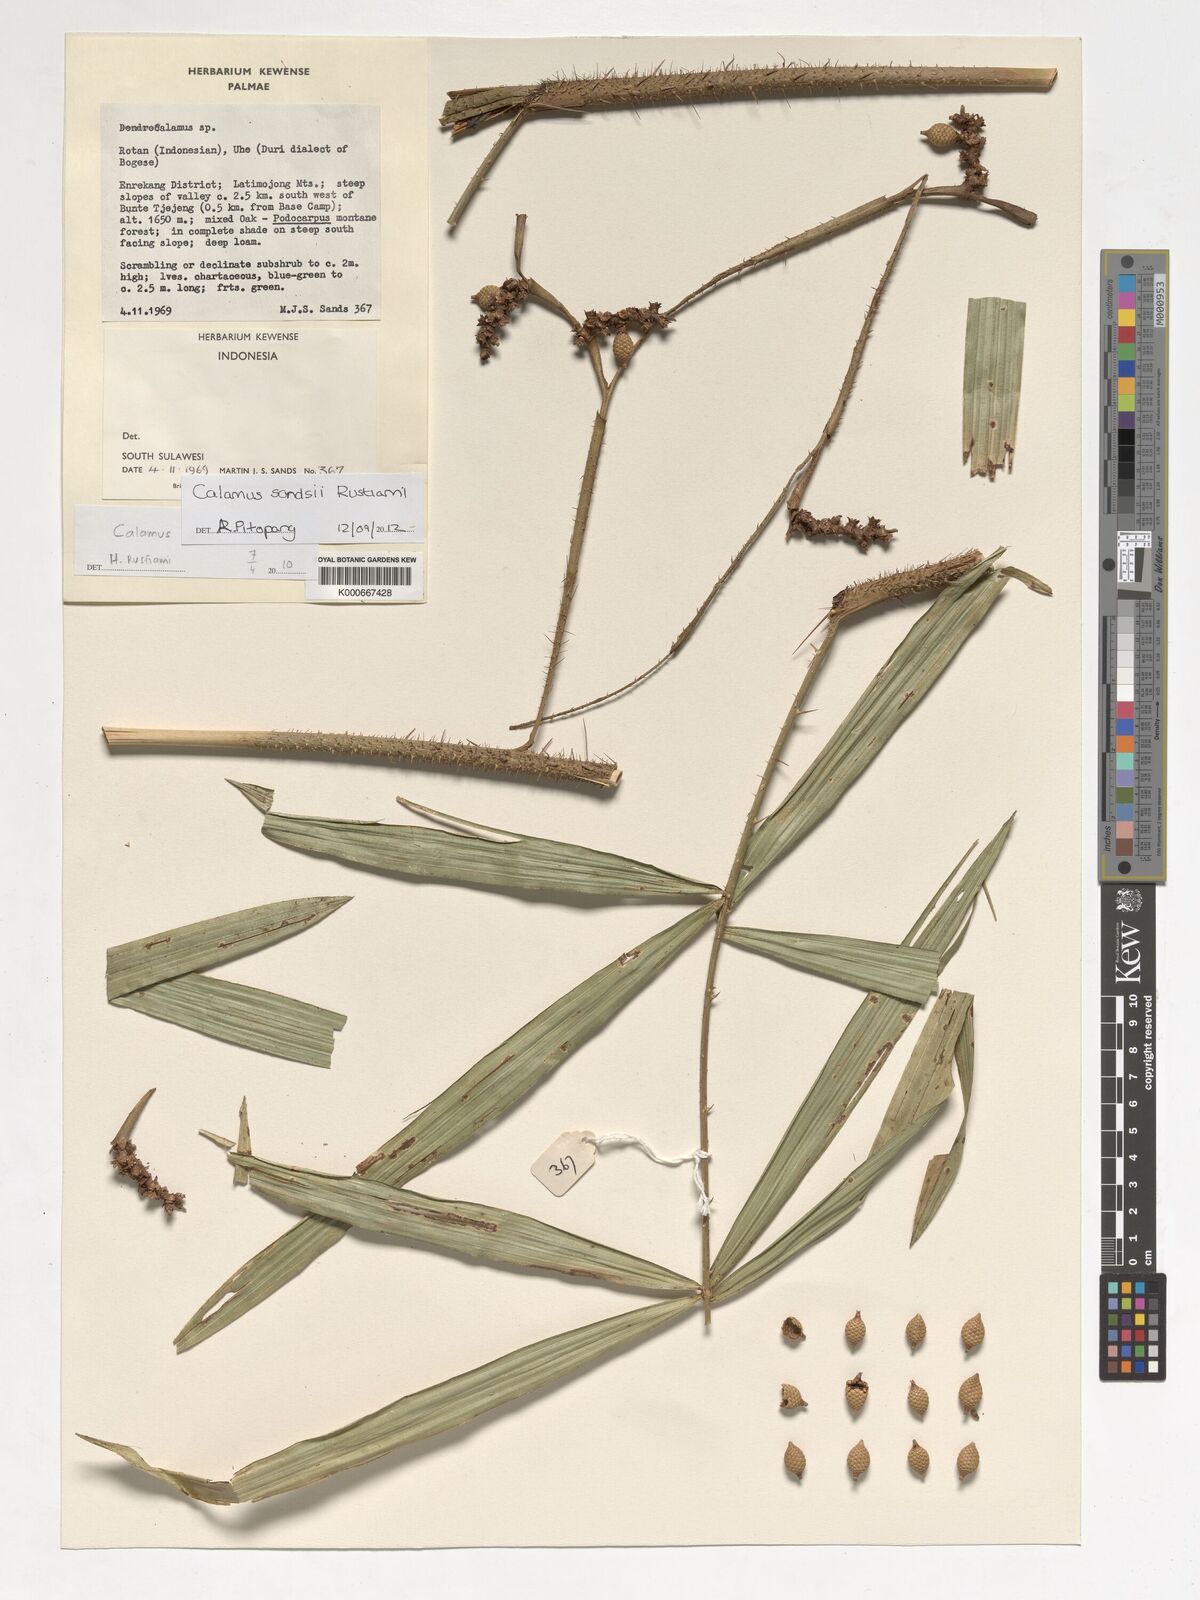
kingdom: Plantae
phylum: Tracheophyta
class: Liliopsida
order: Arecales
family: Arecaceae
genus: Calamus
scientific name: Calamus sandsii
